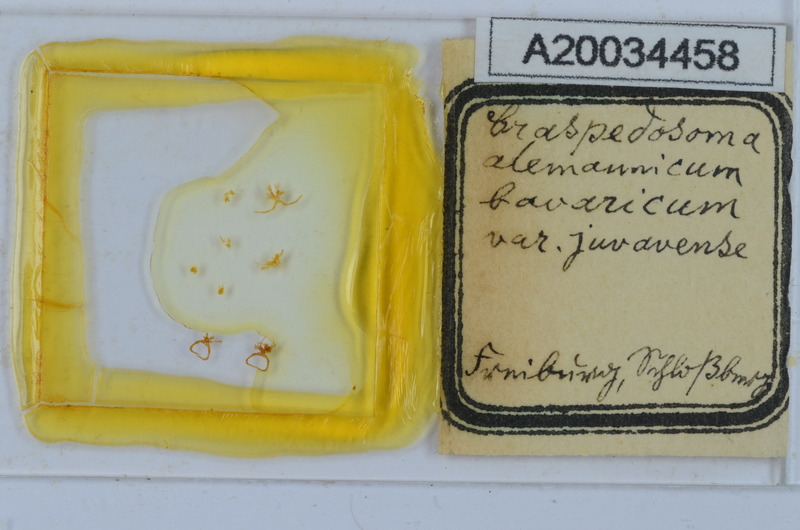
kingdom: Animalia
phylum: Arthropoda
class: Diplopoda
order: Chordeumatida
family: Craspedosomatidae
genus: Craspedosoma
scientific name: Craspedosoma rawlinsii
